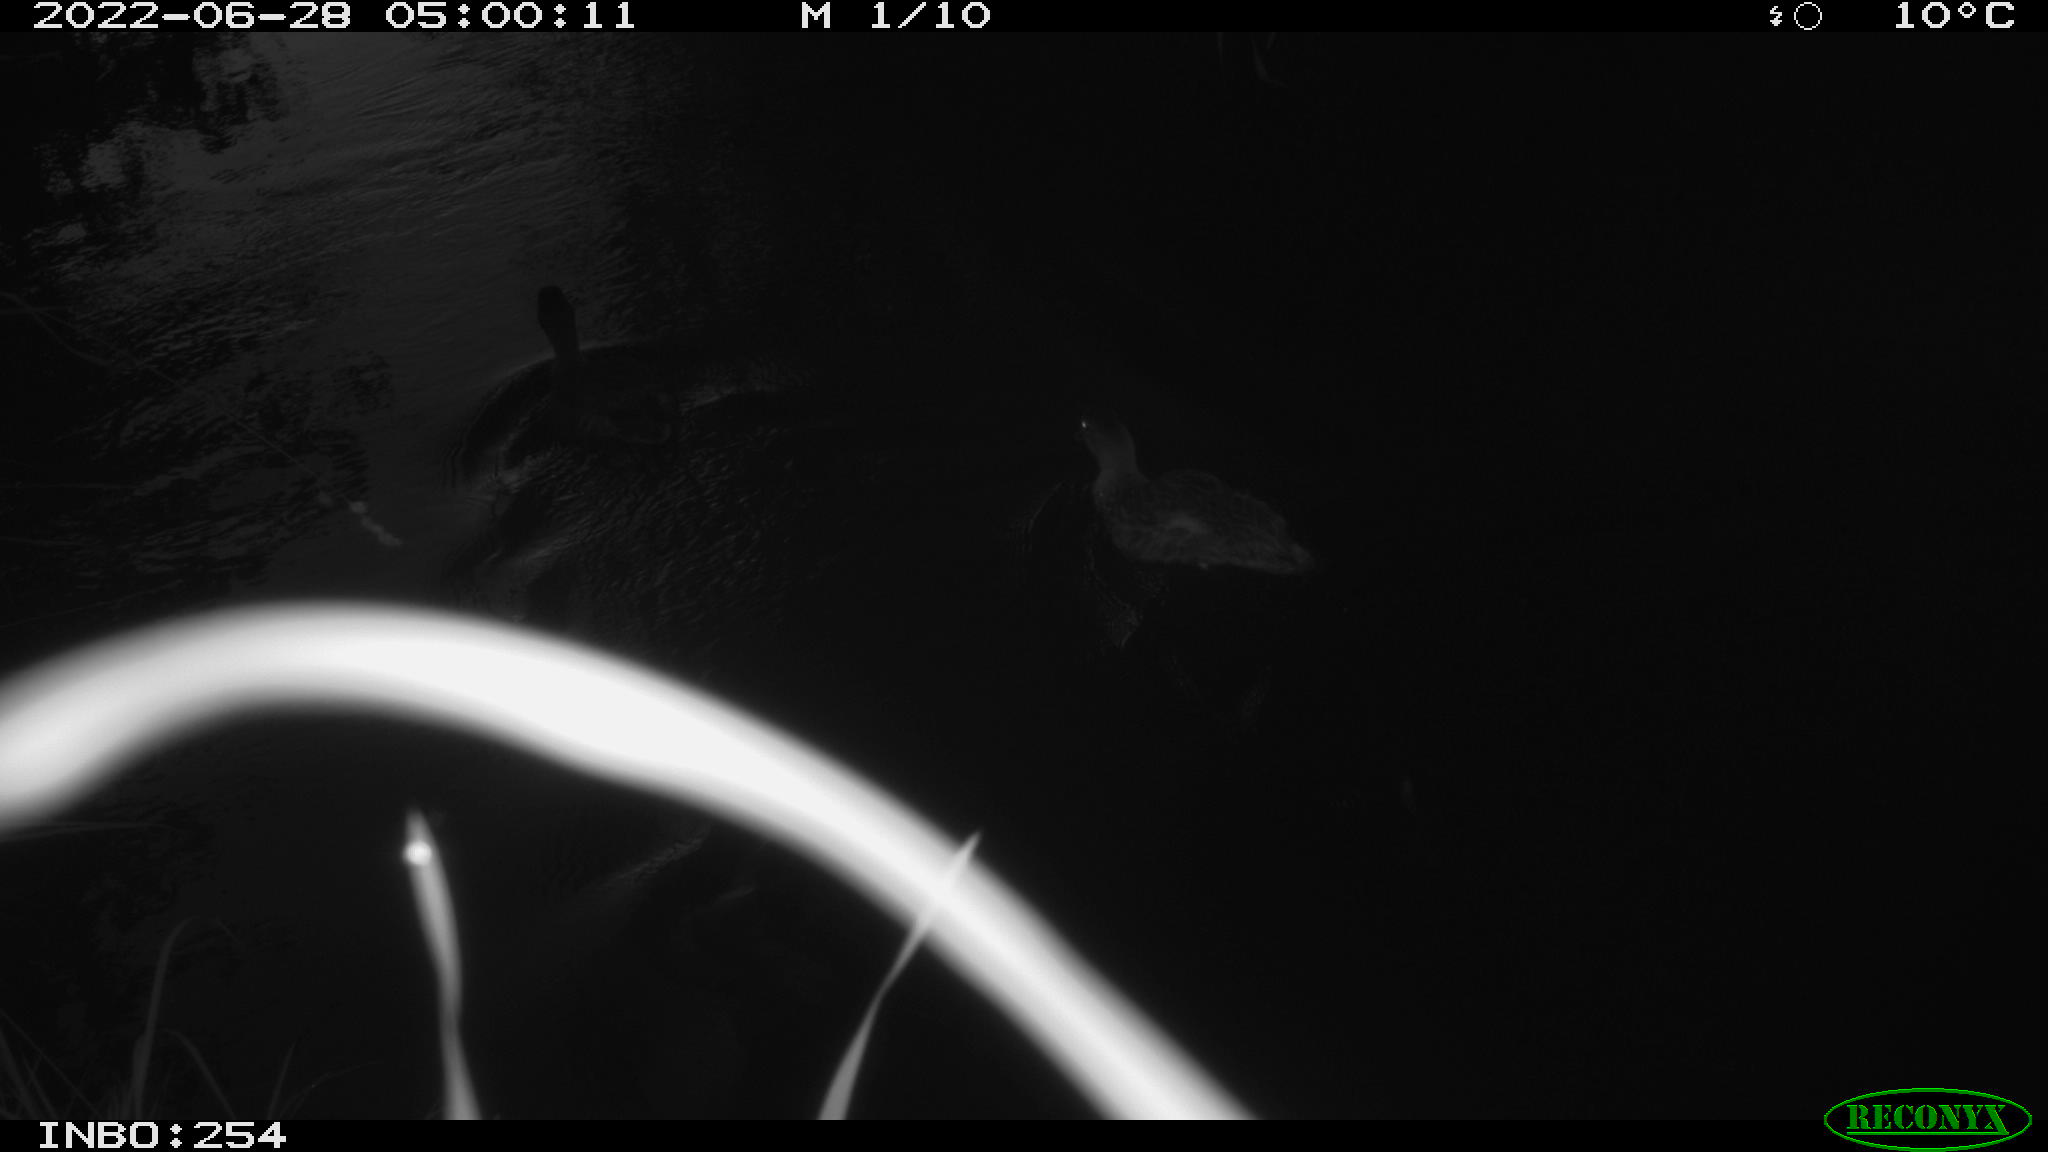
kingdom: Animalia
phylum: Chordata
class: Aves
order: Anseriformes
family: Anatidae
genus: Anas
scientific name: Anas platyrhynchos
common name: Mallard
